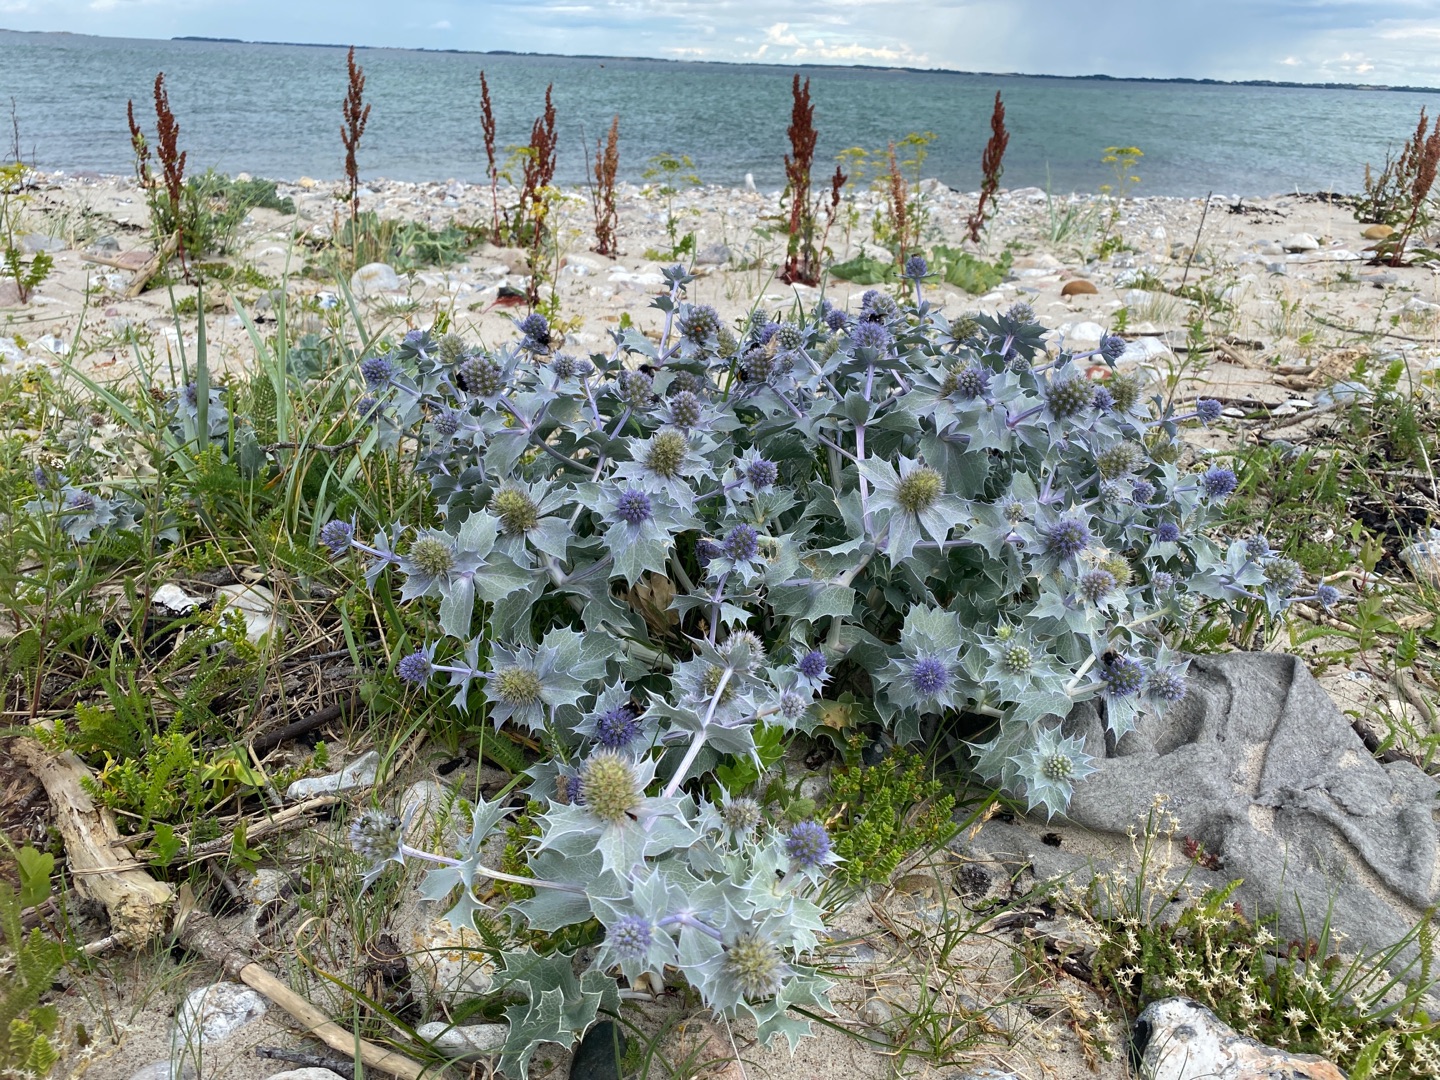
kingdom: Plantae
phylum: Tracheophyta
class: Magnoliopsida
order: Apiales
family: Apiaceae
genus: Eryngium
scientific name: Eryngium maritimum
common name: Strand-mandstro
